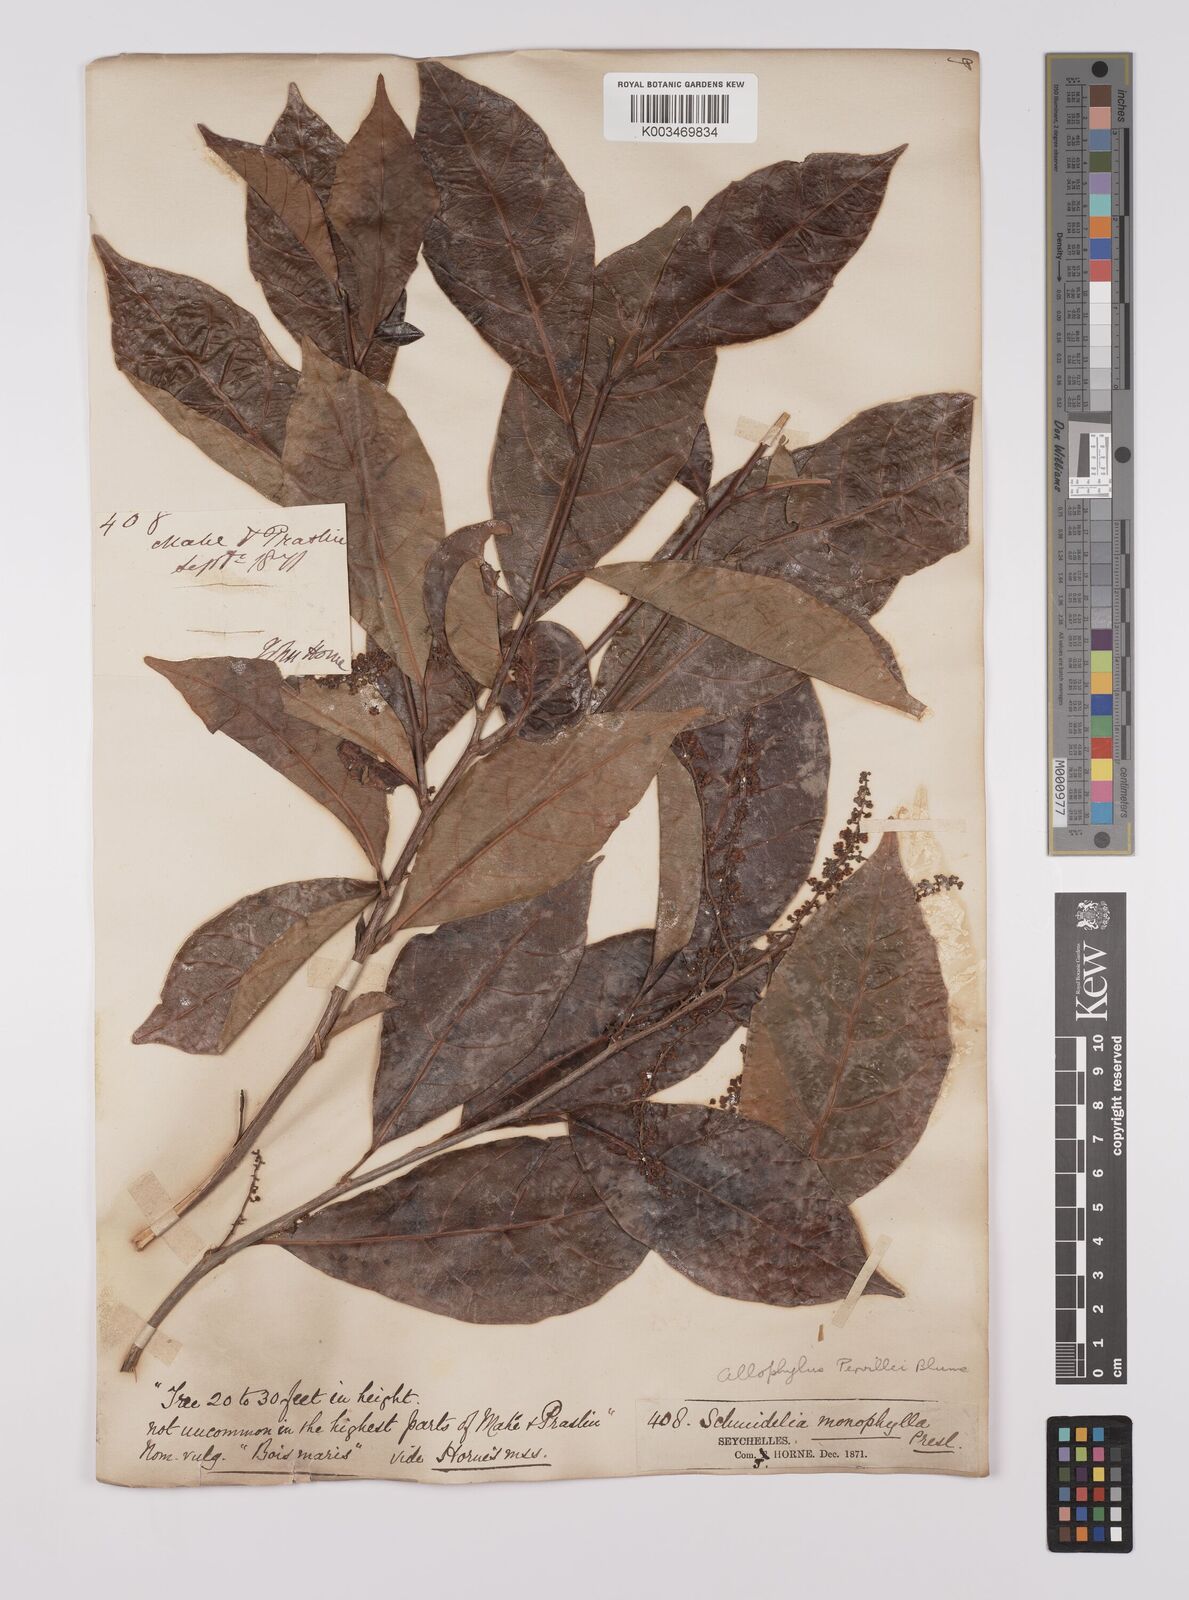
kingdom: Plantae
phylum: Tracheophyta
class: Magnoliopsida
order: Sapindales
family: Sapindaceae
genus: Allophylus
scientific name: Allophylus pervillei
